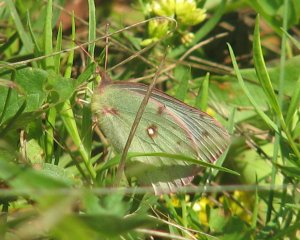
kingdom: Animalia
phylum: Arthropoda
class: Insecta
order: Lepidoptera
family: Pieridae
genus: Colias
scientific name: Colias eurytheme
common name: Orange Sulphur
